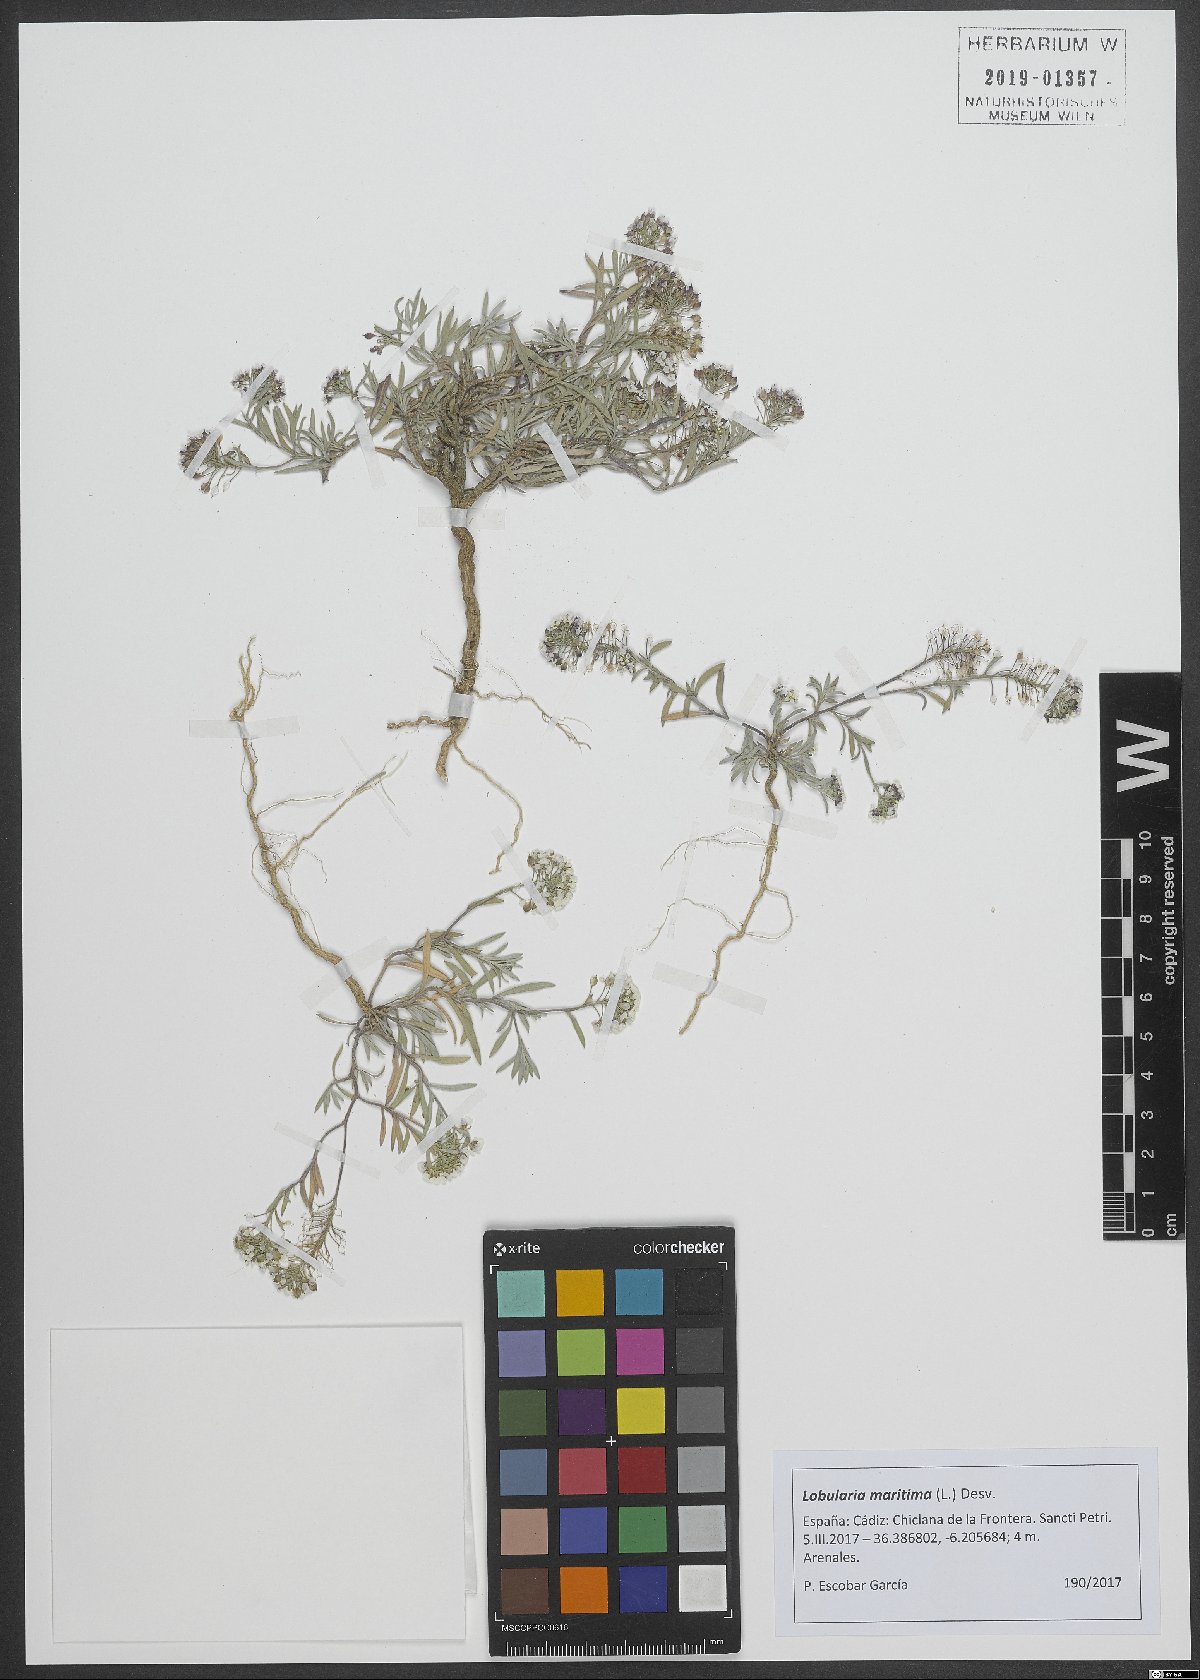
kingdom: Plantae
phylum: Tracheophyta
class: Magnoliopsida
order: Brassicales
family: Brassicaceae
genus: Lobularia
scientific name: Lobularia maritima
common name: Sweet alison
